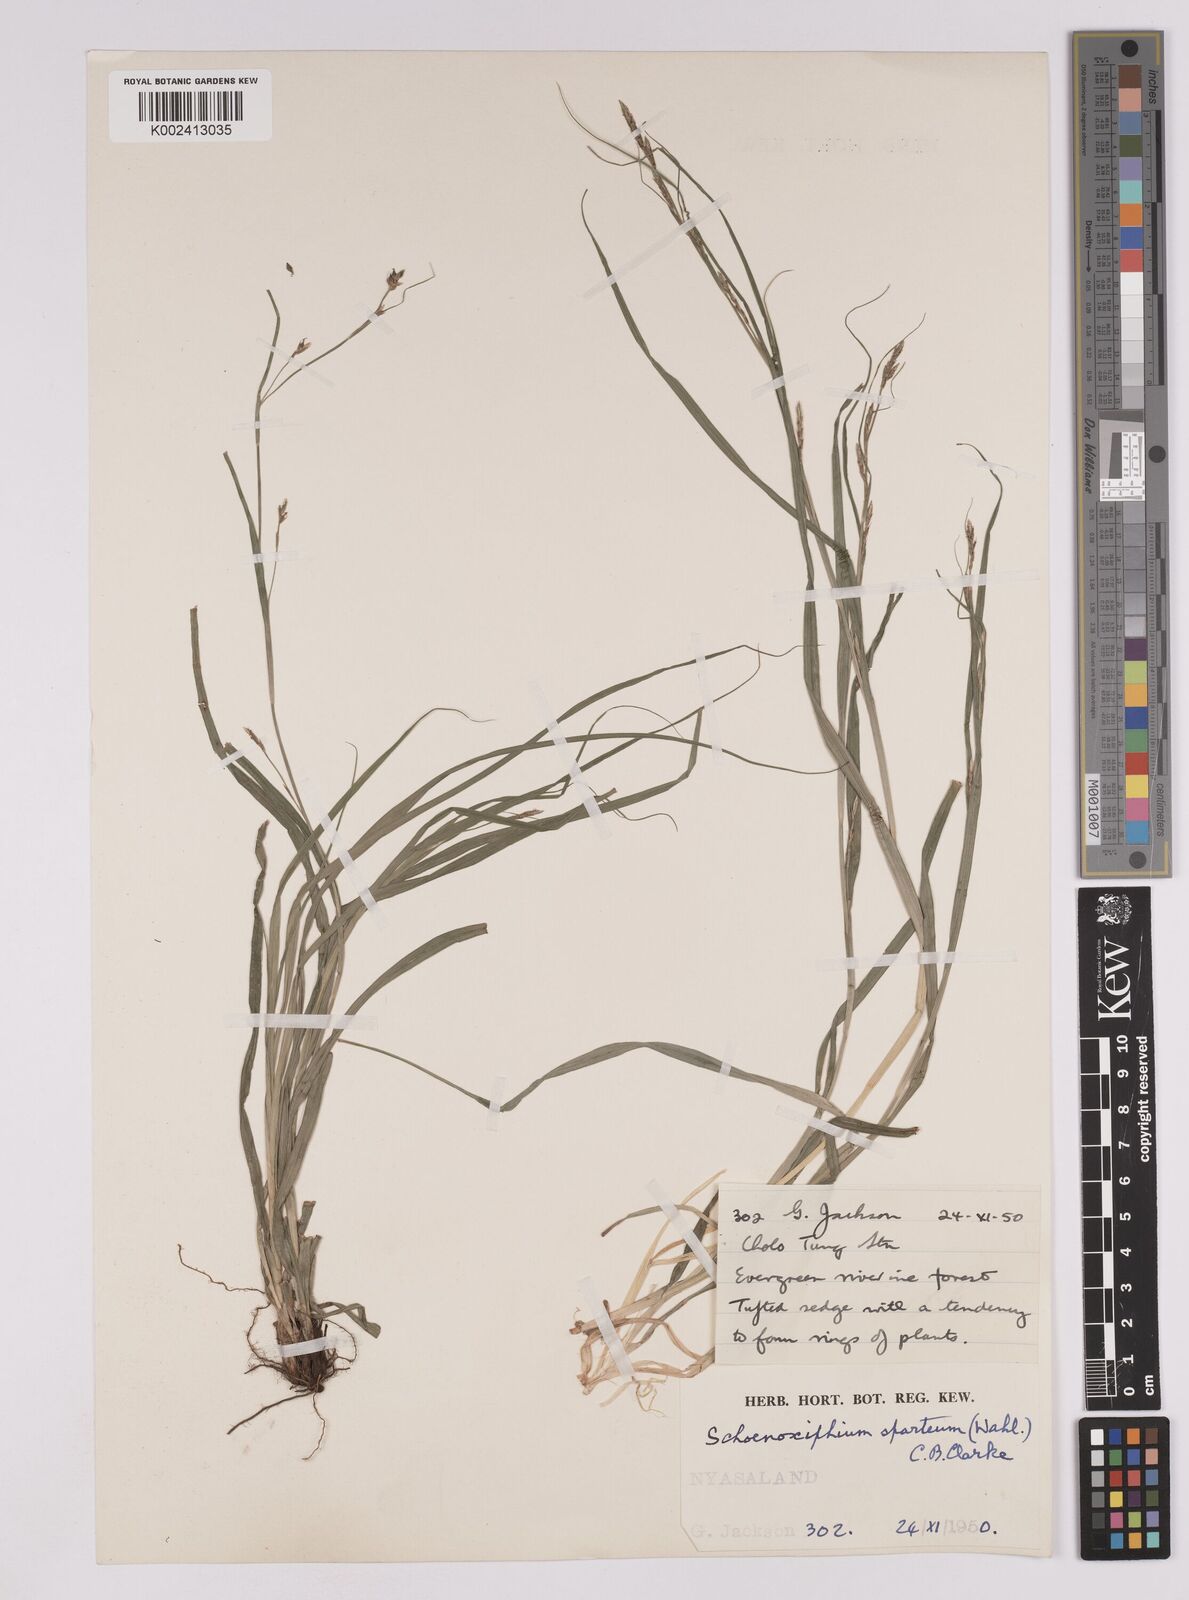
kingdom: Plantae
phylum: Tracheophyta
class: Liliopsida
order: Poales
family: Cyperaceae
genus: Carex
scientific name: Carex spartea
